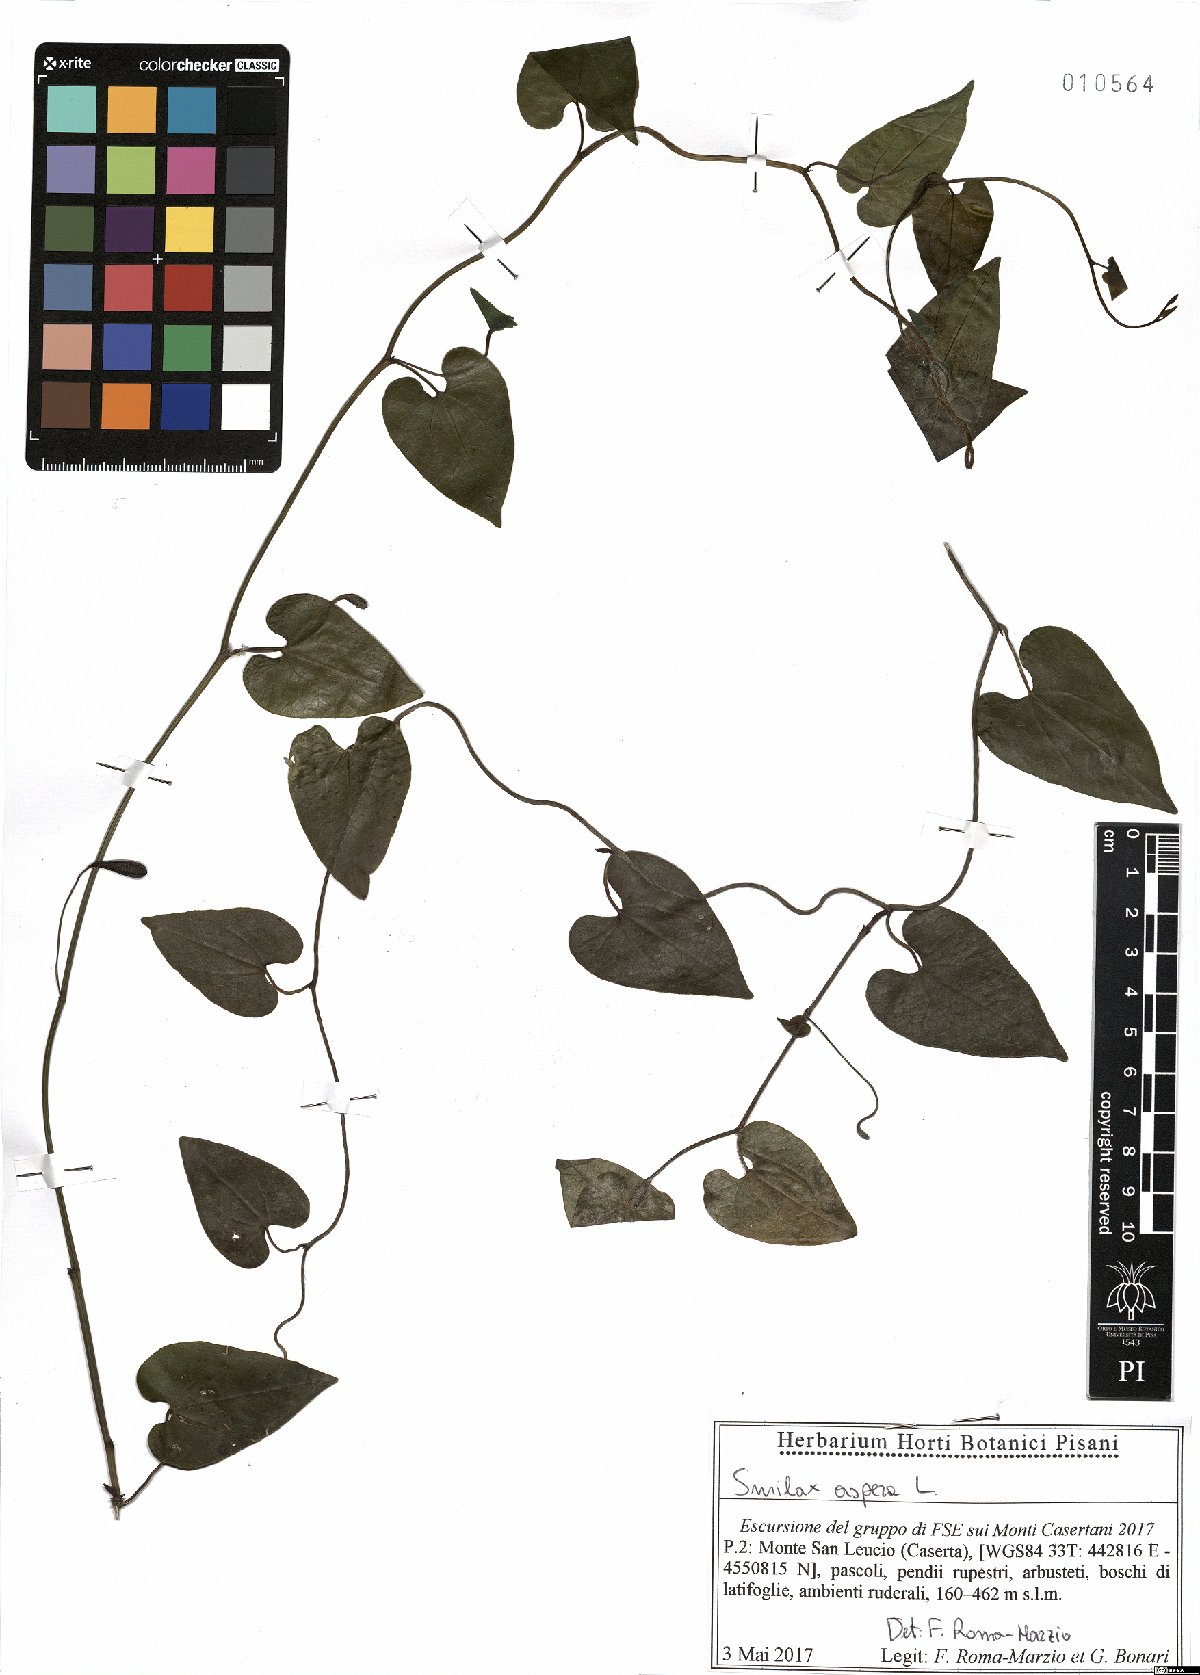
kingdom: Plantae
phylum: Tracheophyta
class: Liliopsida
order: Liliales
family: Smilacaceae
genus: Smilax
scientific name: Smilax aspera
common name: Common smilax
